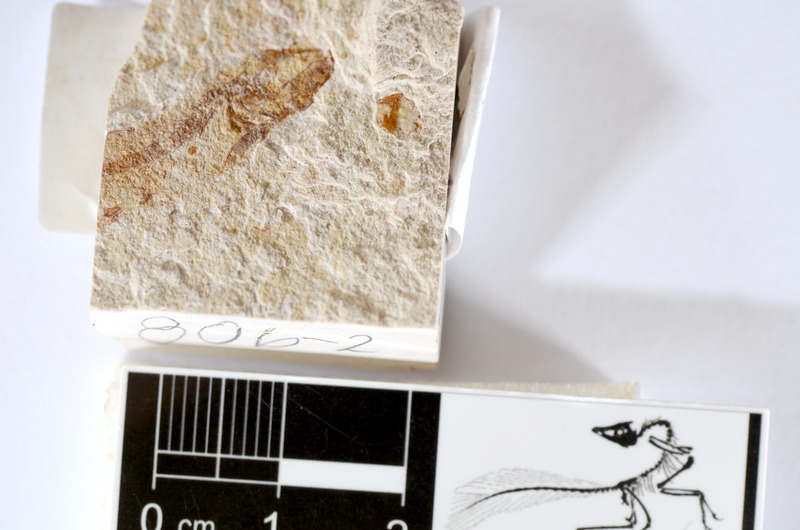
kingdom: Animalia
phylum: Chordata
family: Ascalaboidae
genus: Tharsis
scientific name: Tharsis dubius
